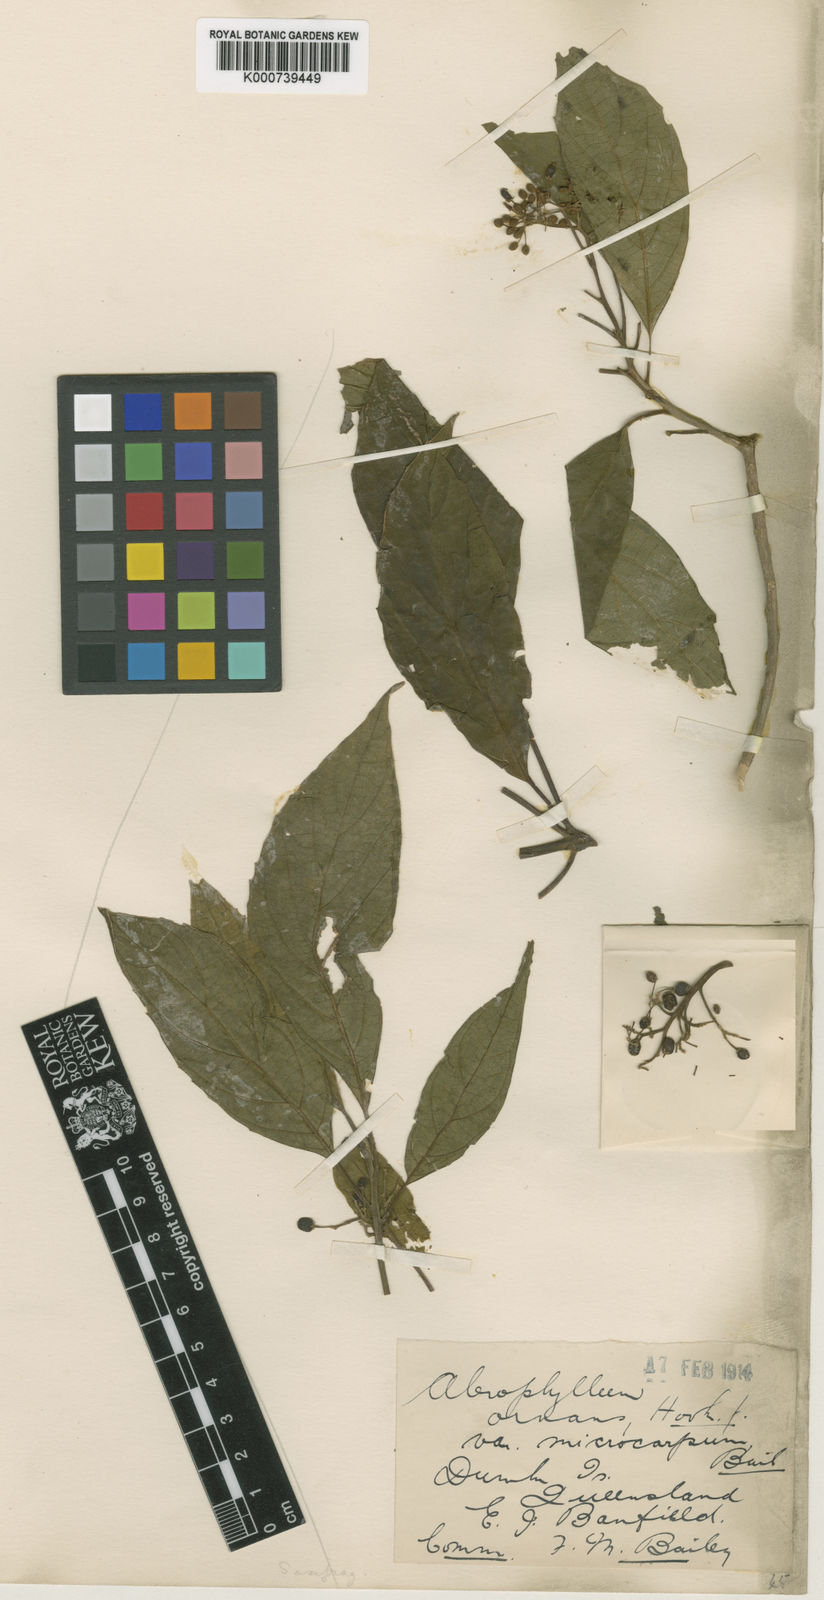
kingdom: Plantae
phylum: Tracheophyta
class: Magnoliopsida
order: Asterales
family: Rousseaceae
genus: Abrophyllum
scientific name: Abrophyllum ornans
